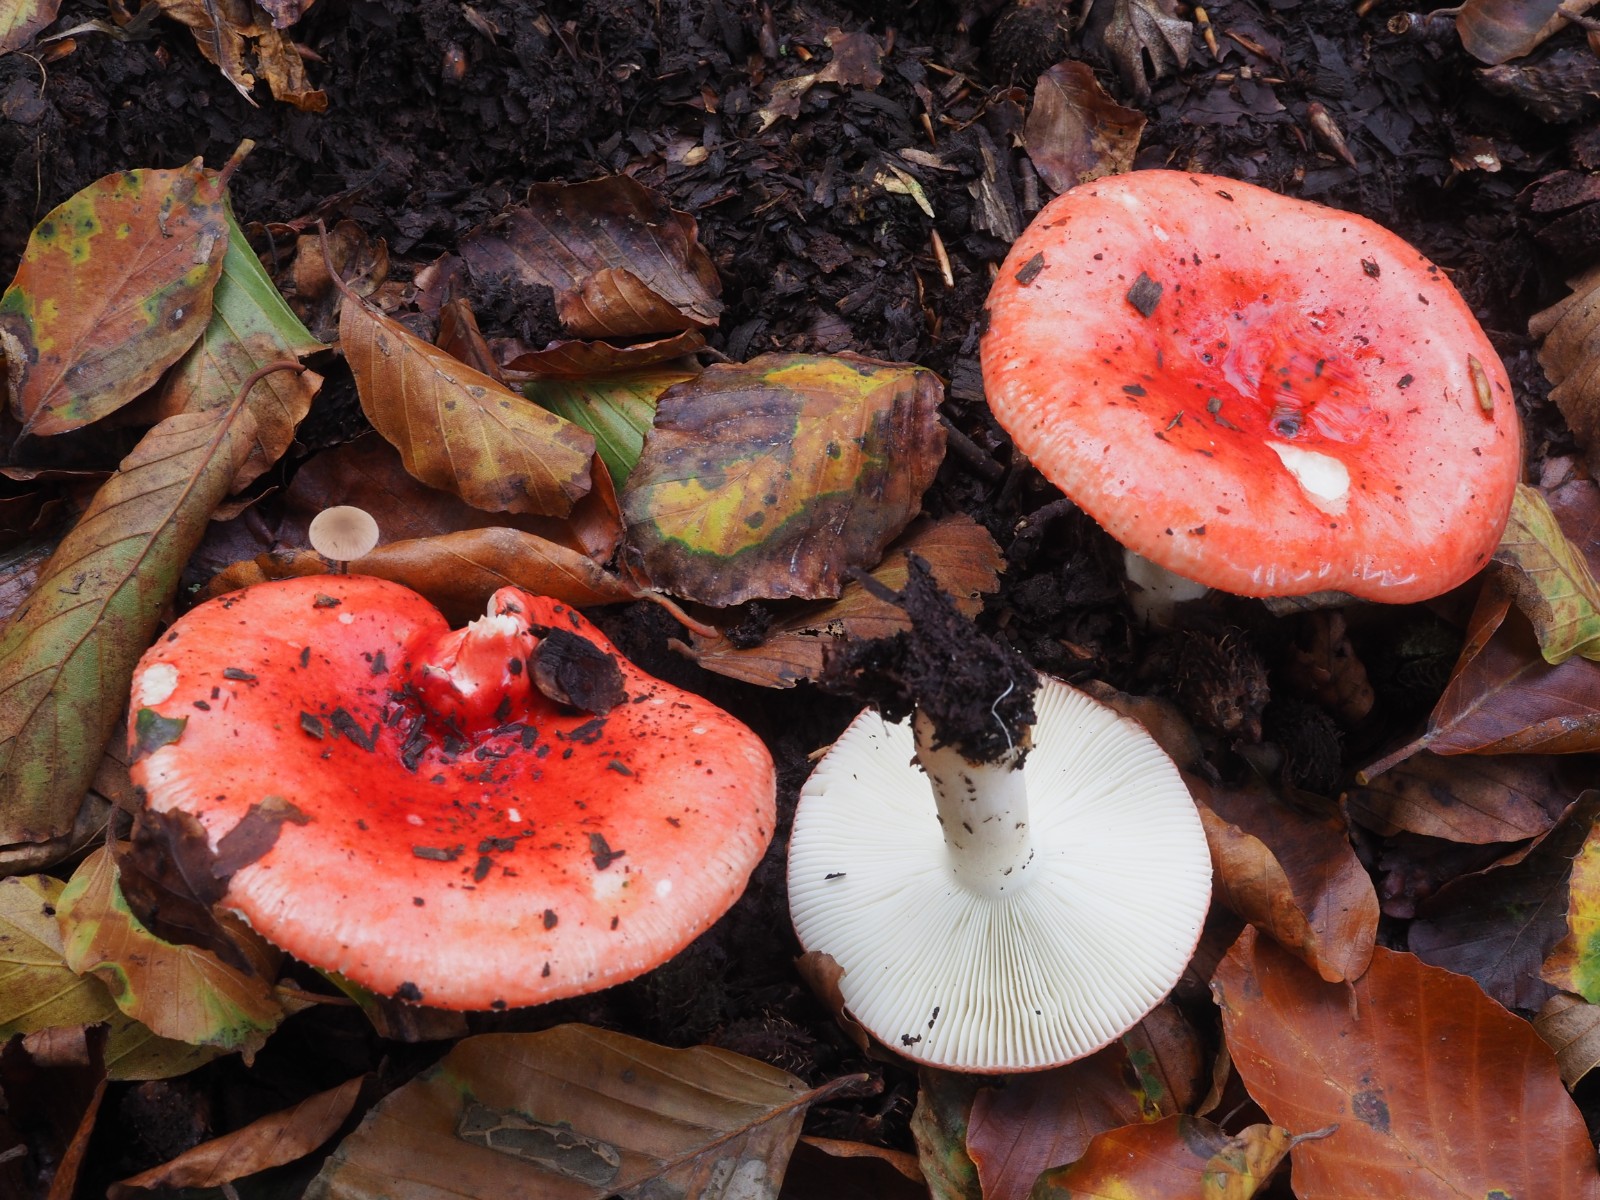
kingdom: Fungi
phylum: Basidiomycota
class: Agaricomycetes
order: Russulales
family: Russulaceae
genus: Russula
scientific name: Russula silvestris
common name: mellemstor gift-skørhat
